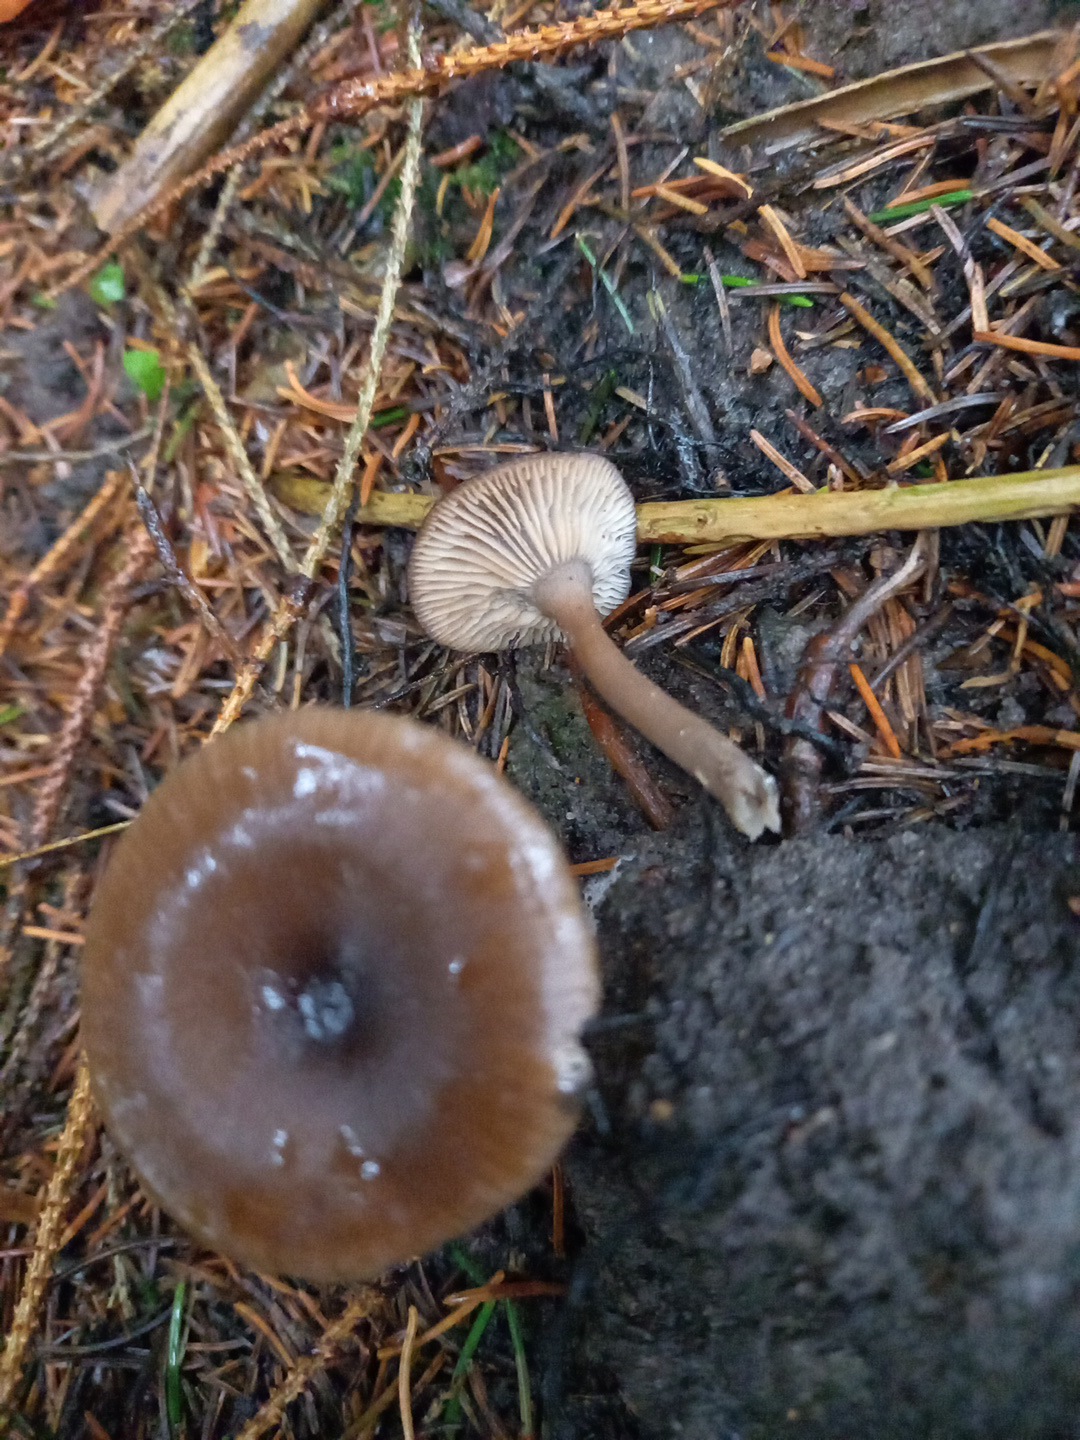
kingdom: Fungi
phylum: Basidiomycota
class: Agaricomycetes
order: Agaricales
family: Pseudoclitocybaceae
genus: Pseudoclitocybe
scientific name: Pseudoclitocybe cyathiformis
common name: almindelig bægertragthat
